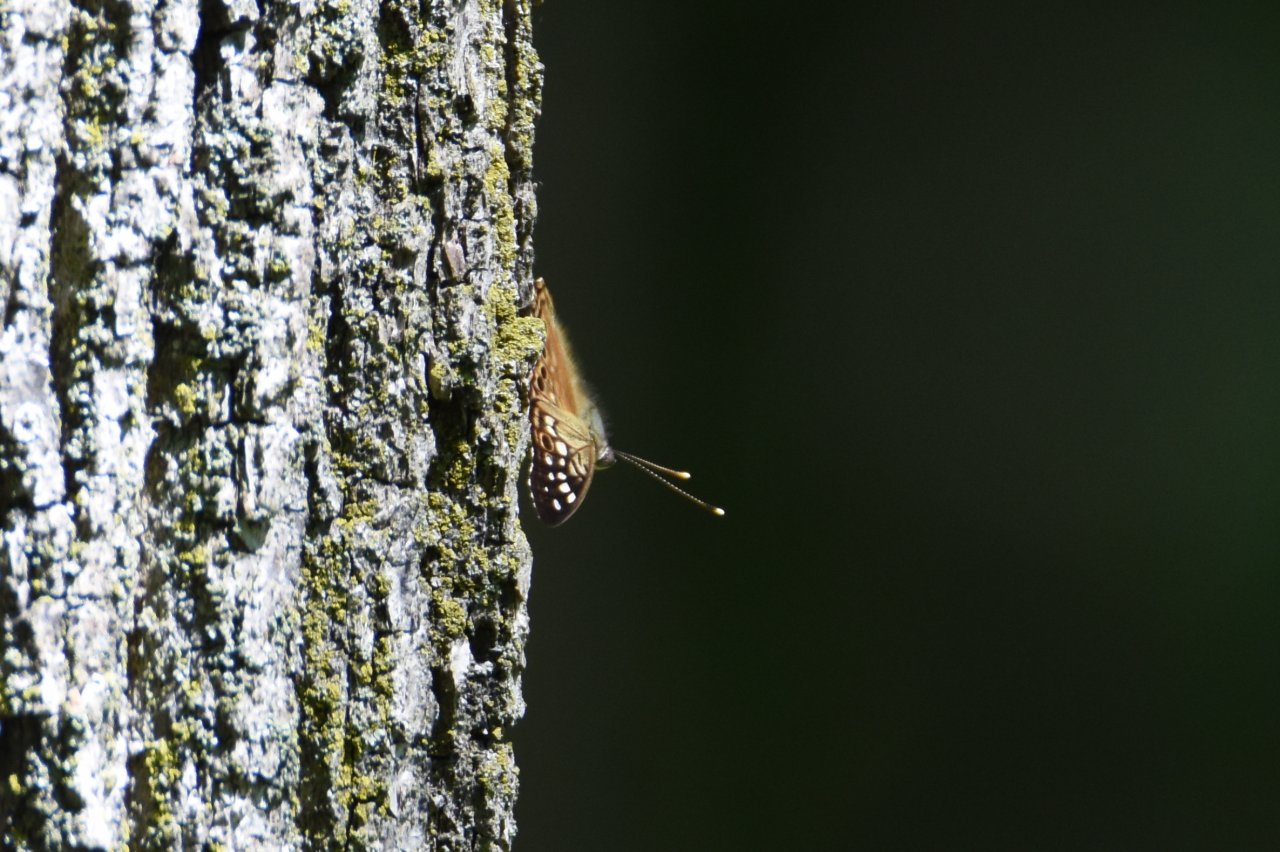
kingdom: Animalia
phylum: Arthropoda
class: Insecta
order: Lepidoptera
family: Nymphalidae
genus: Asterocampa
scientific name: Asterocampa celtis
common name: Hackberry Emperor
